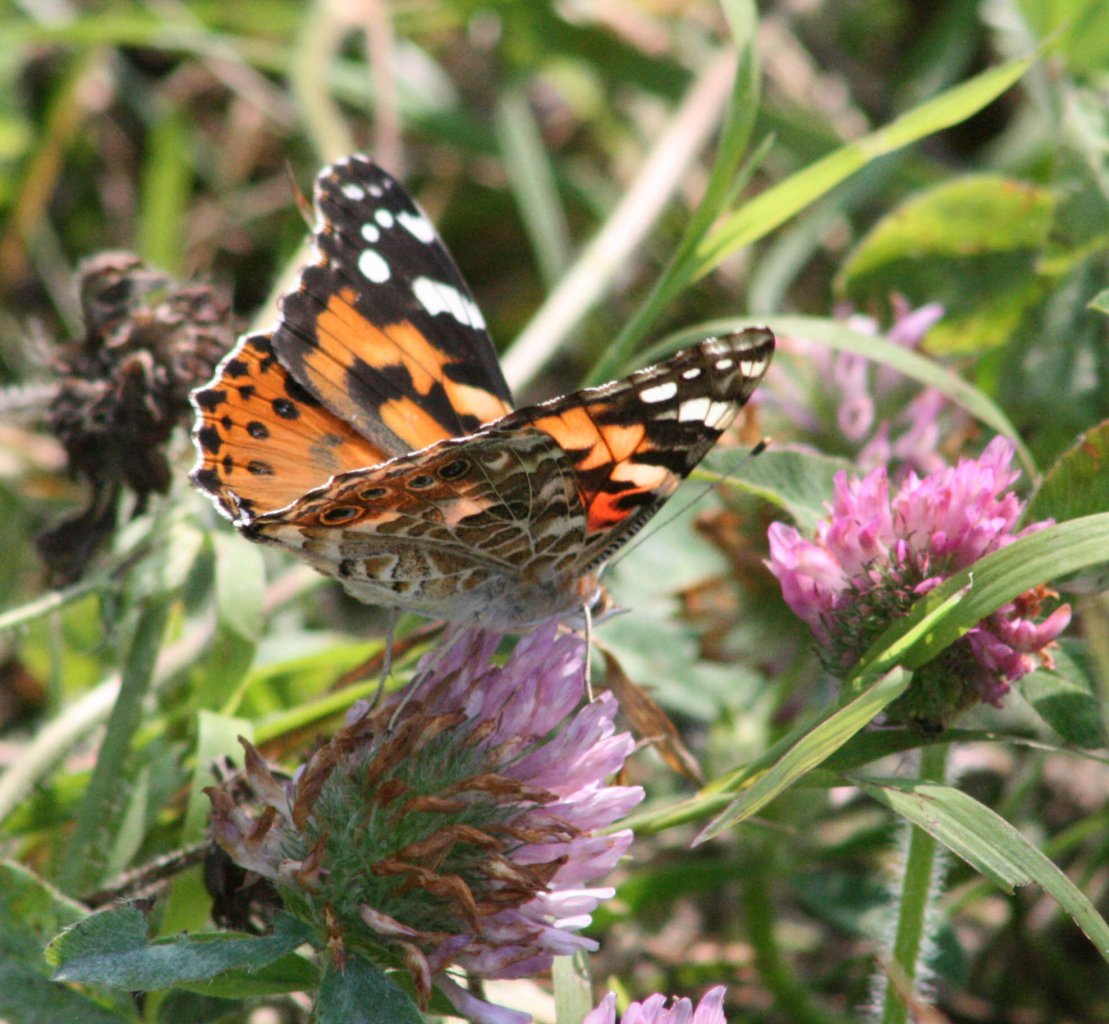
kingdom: Animalia
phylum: Arthropoda
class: Insecta
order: Lepidoptera
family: Nymphalidae
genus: Vanessa
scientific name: Vanessa cardui
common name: Painted Lady
